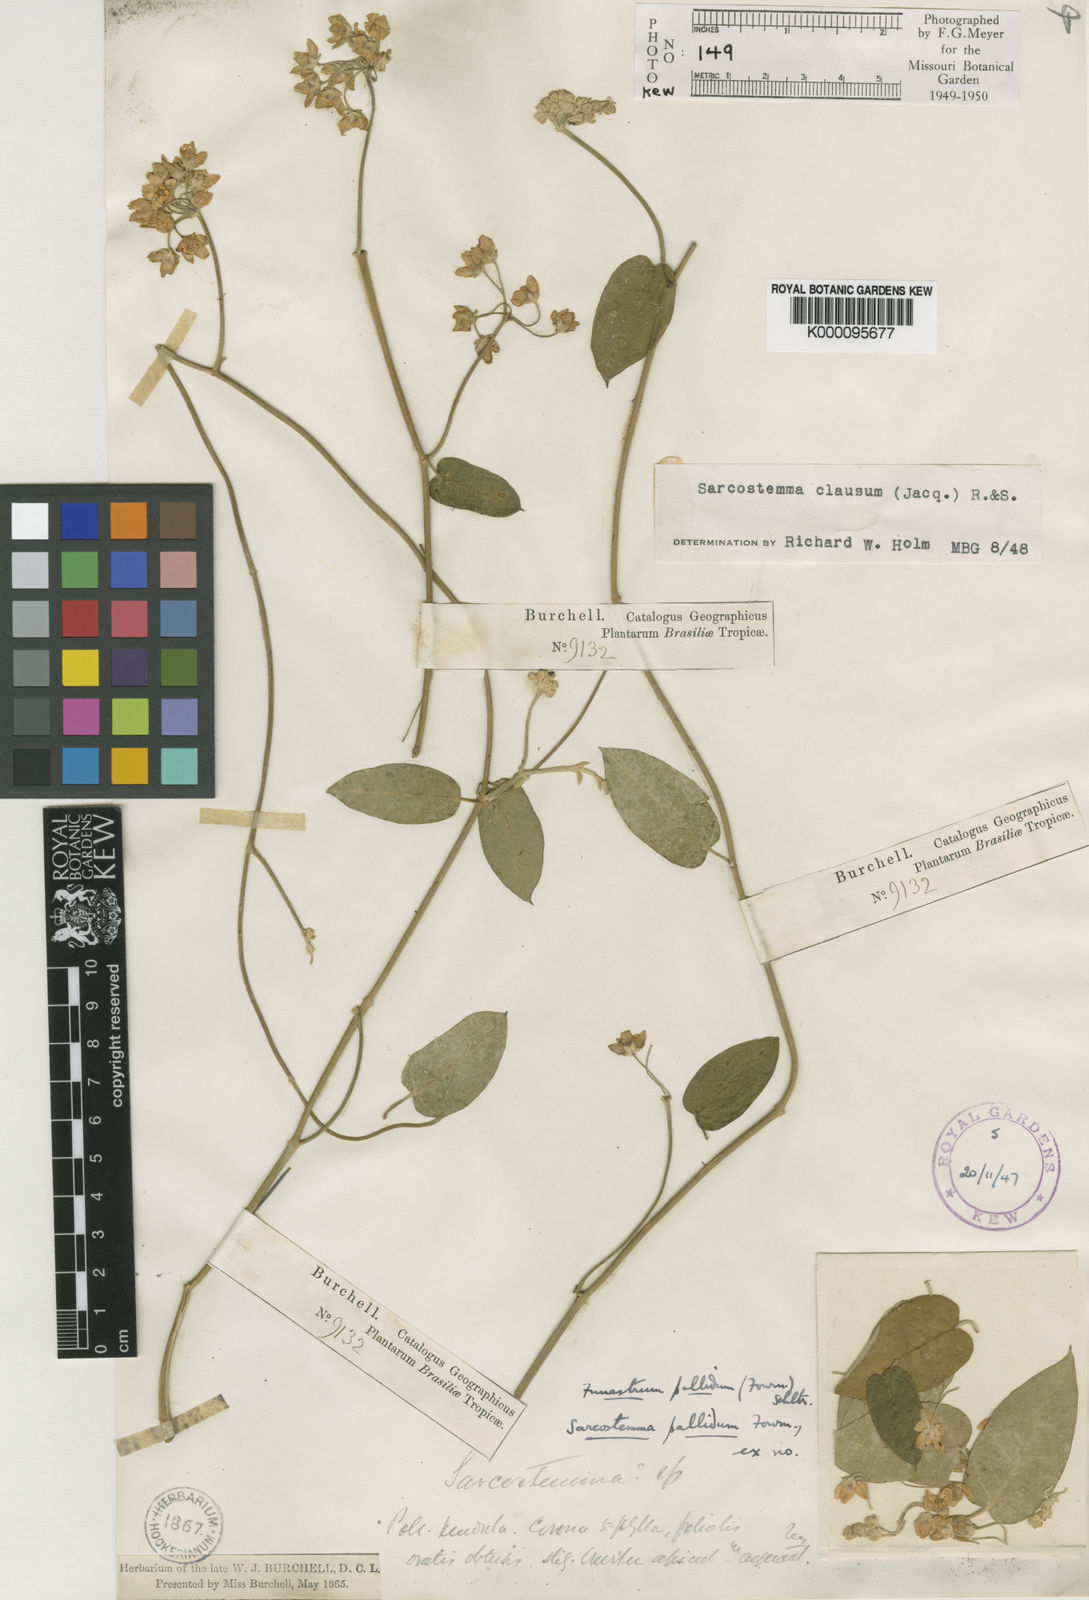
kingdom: Plantae
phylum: Tracheophyta
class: Magnoliopsida
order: Gentianales
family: Apocynaceae
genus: Funastrum
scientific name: Funastrum clausum
